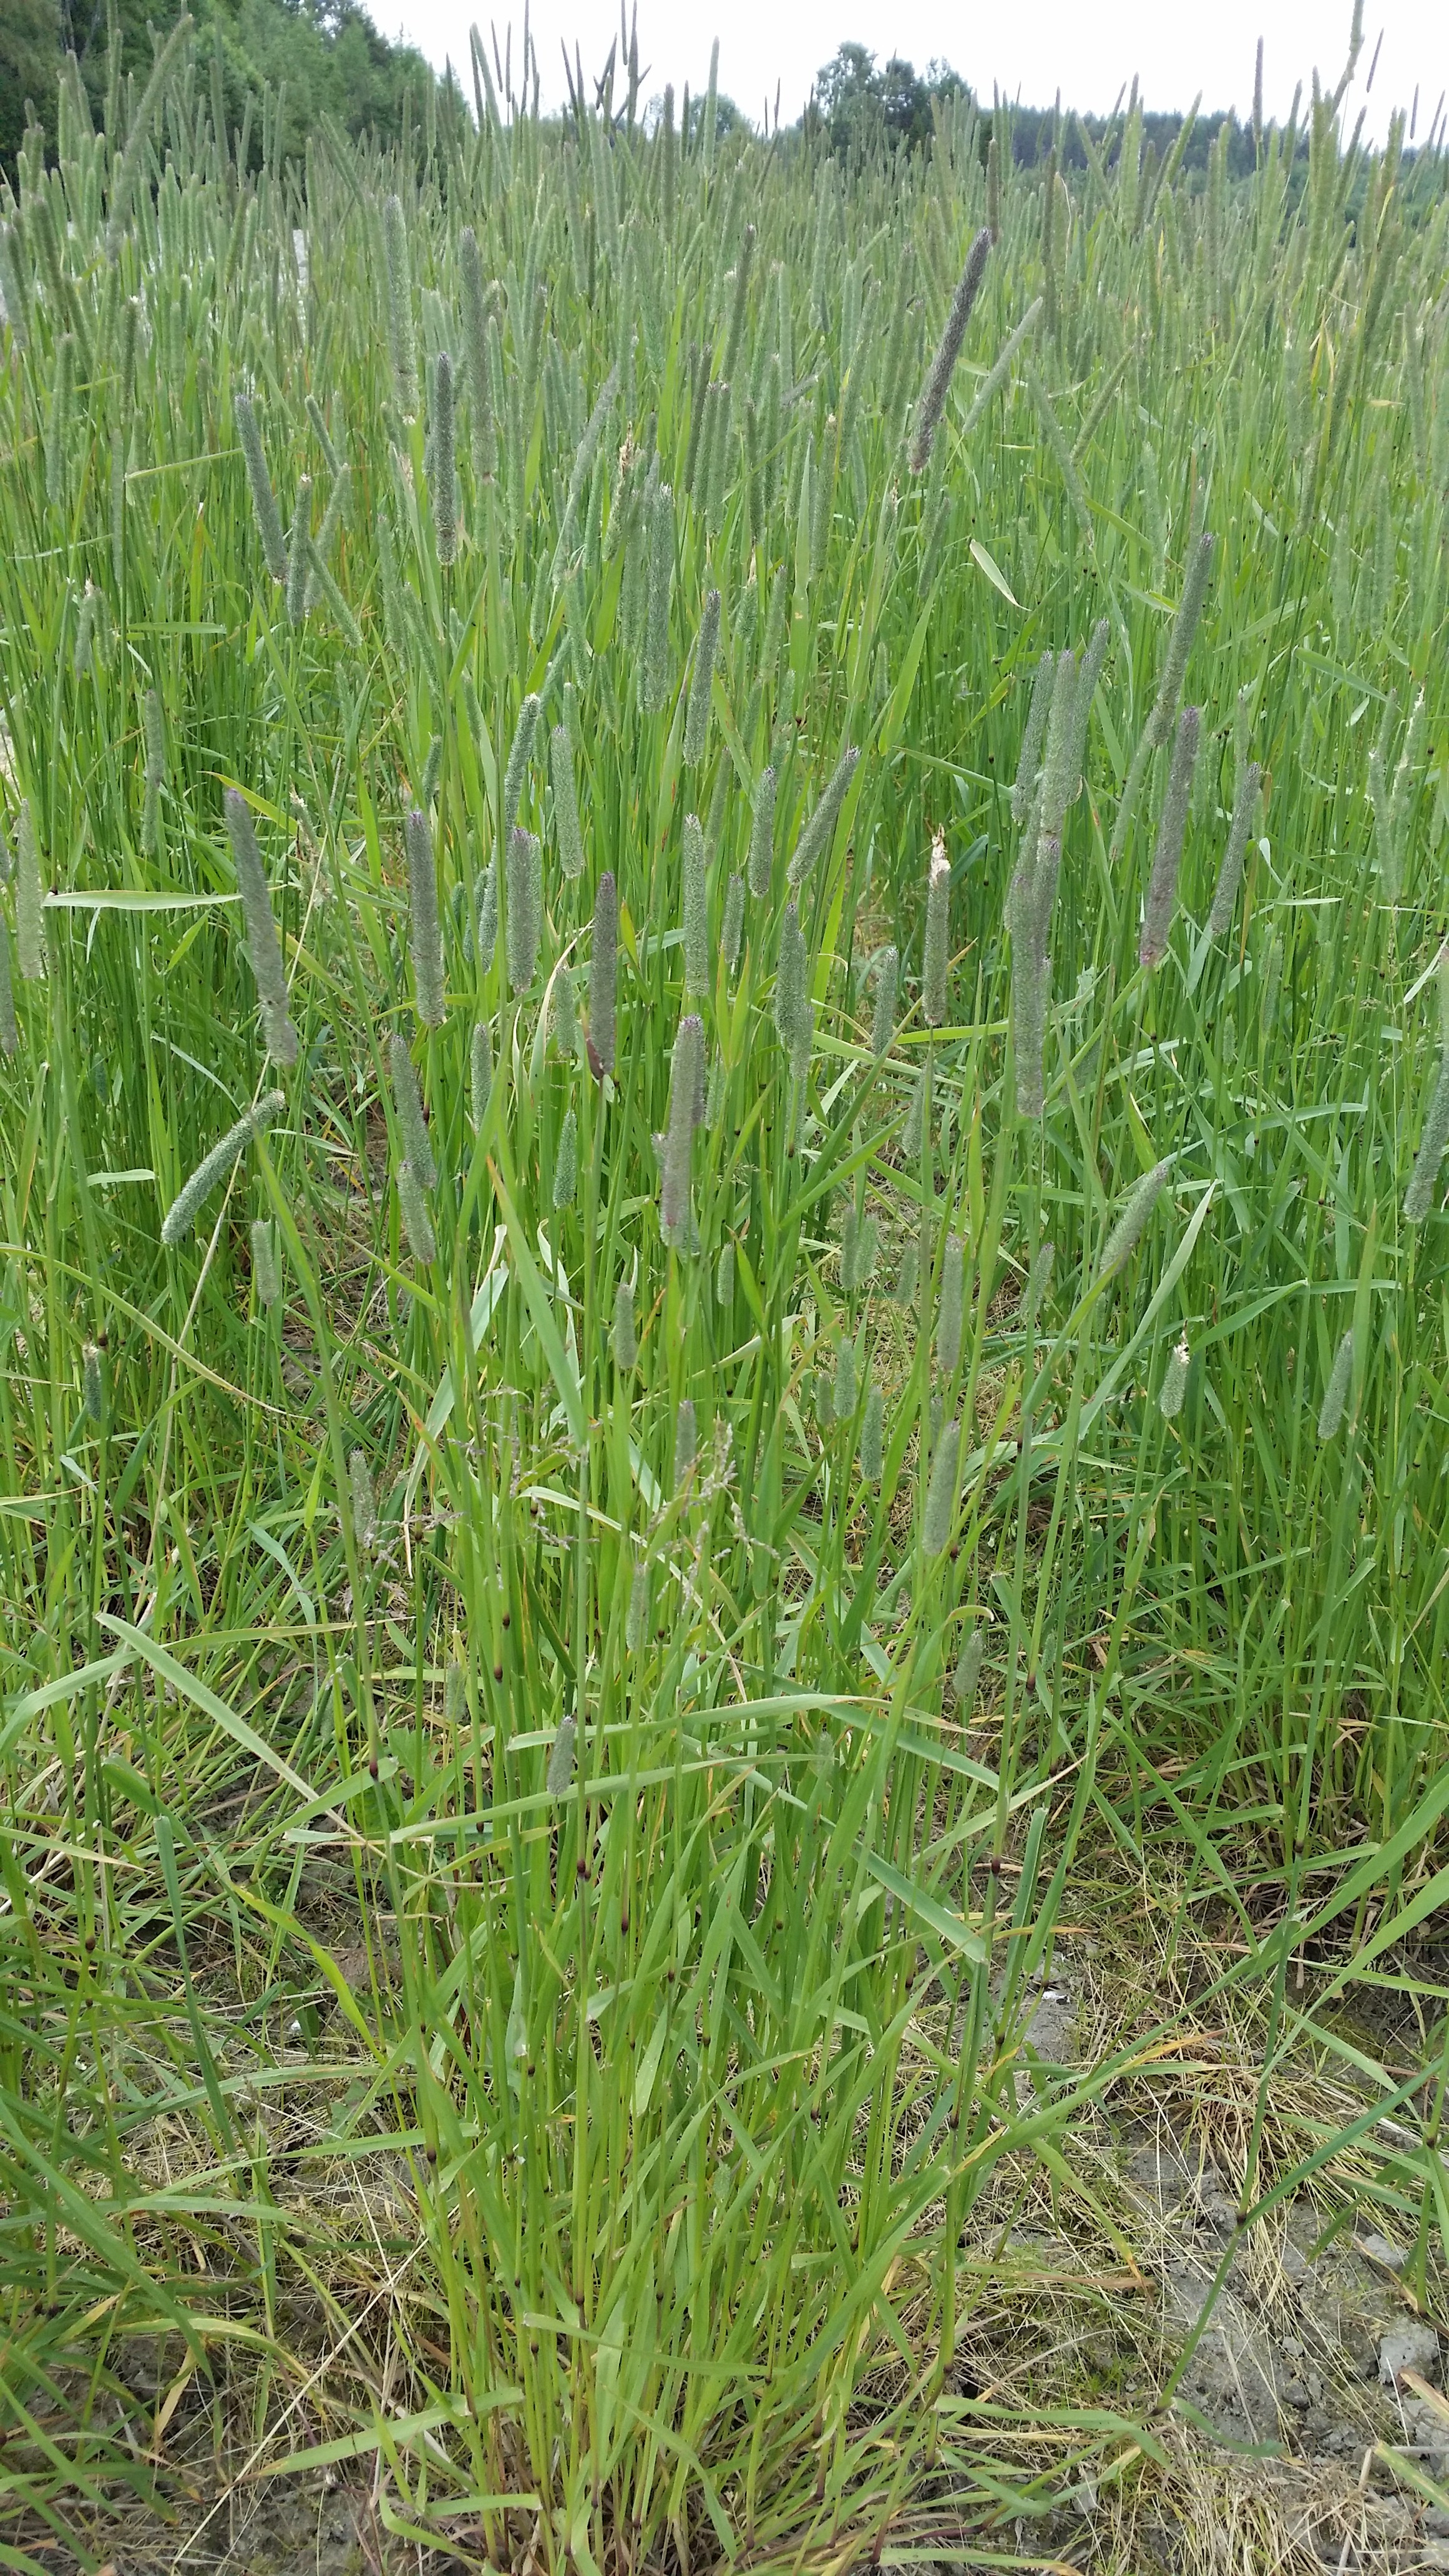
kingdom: Plantae
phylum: Tracheophyta
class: Liliopsida
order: Poales
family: Poaceae
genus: Phleum
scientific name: Phleum pratense
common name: Timothy grass
